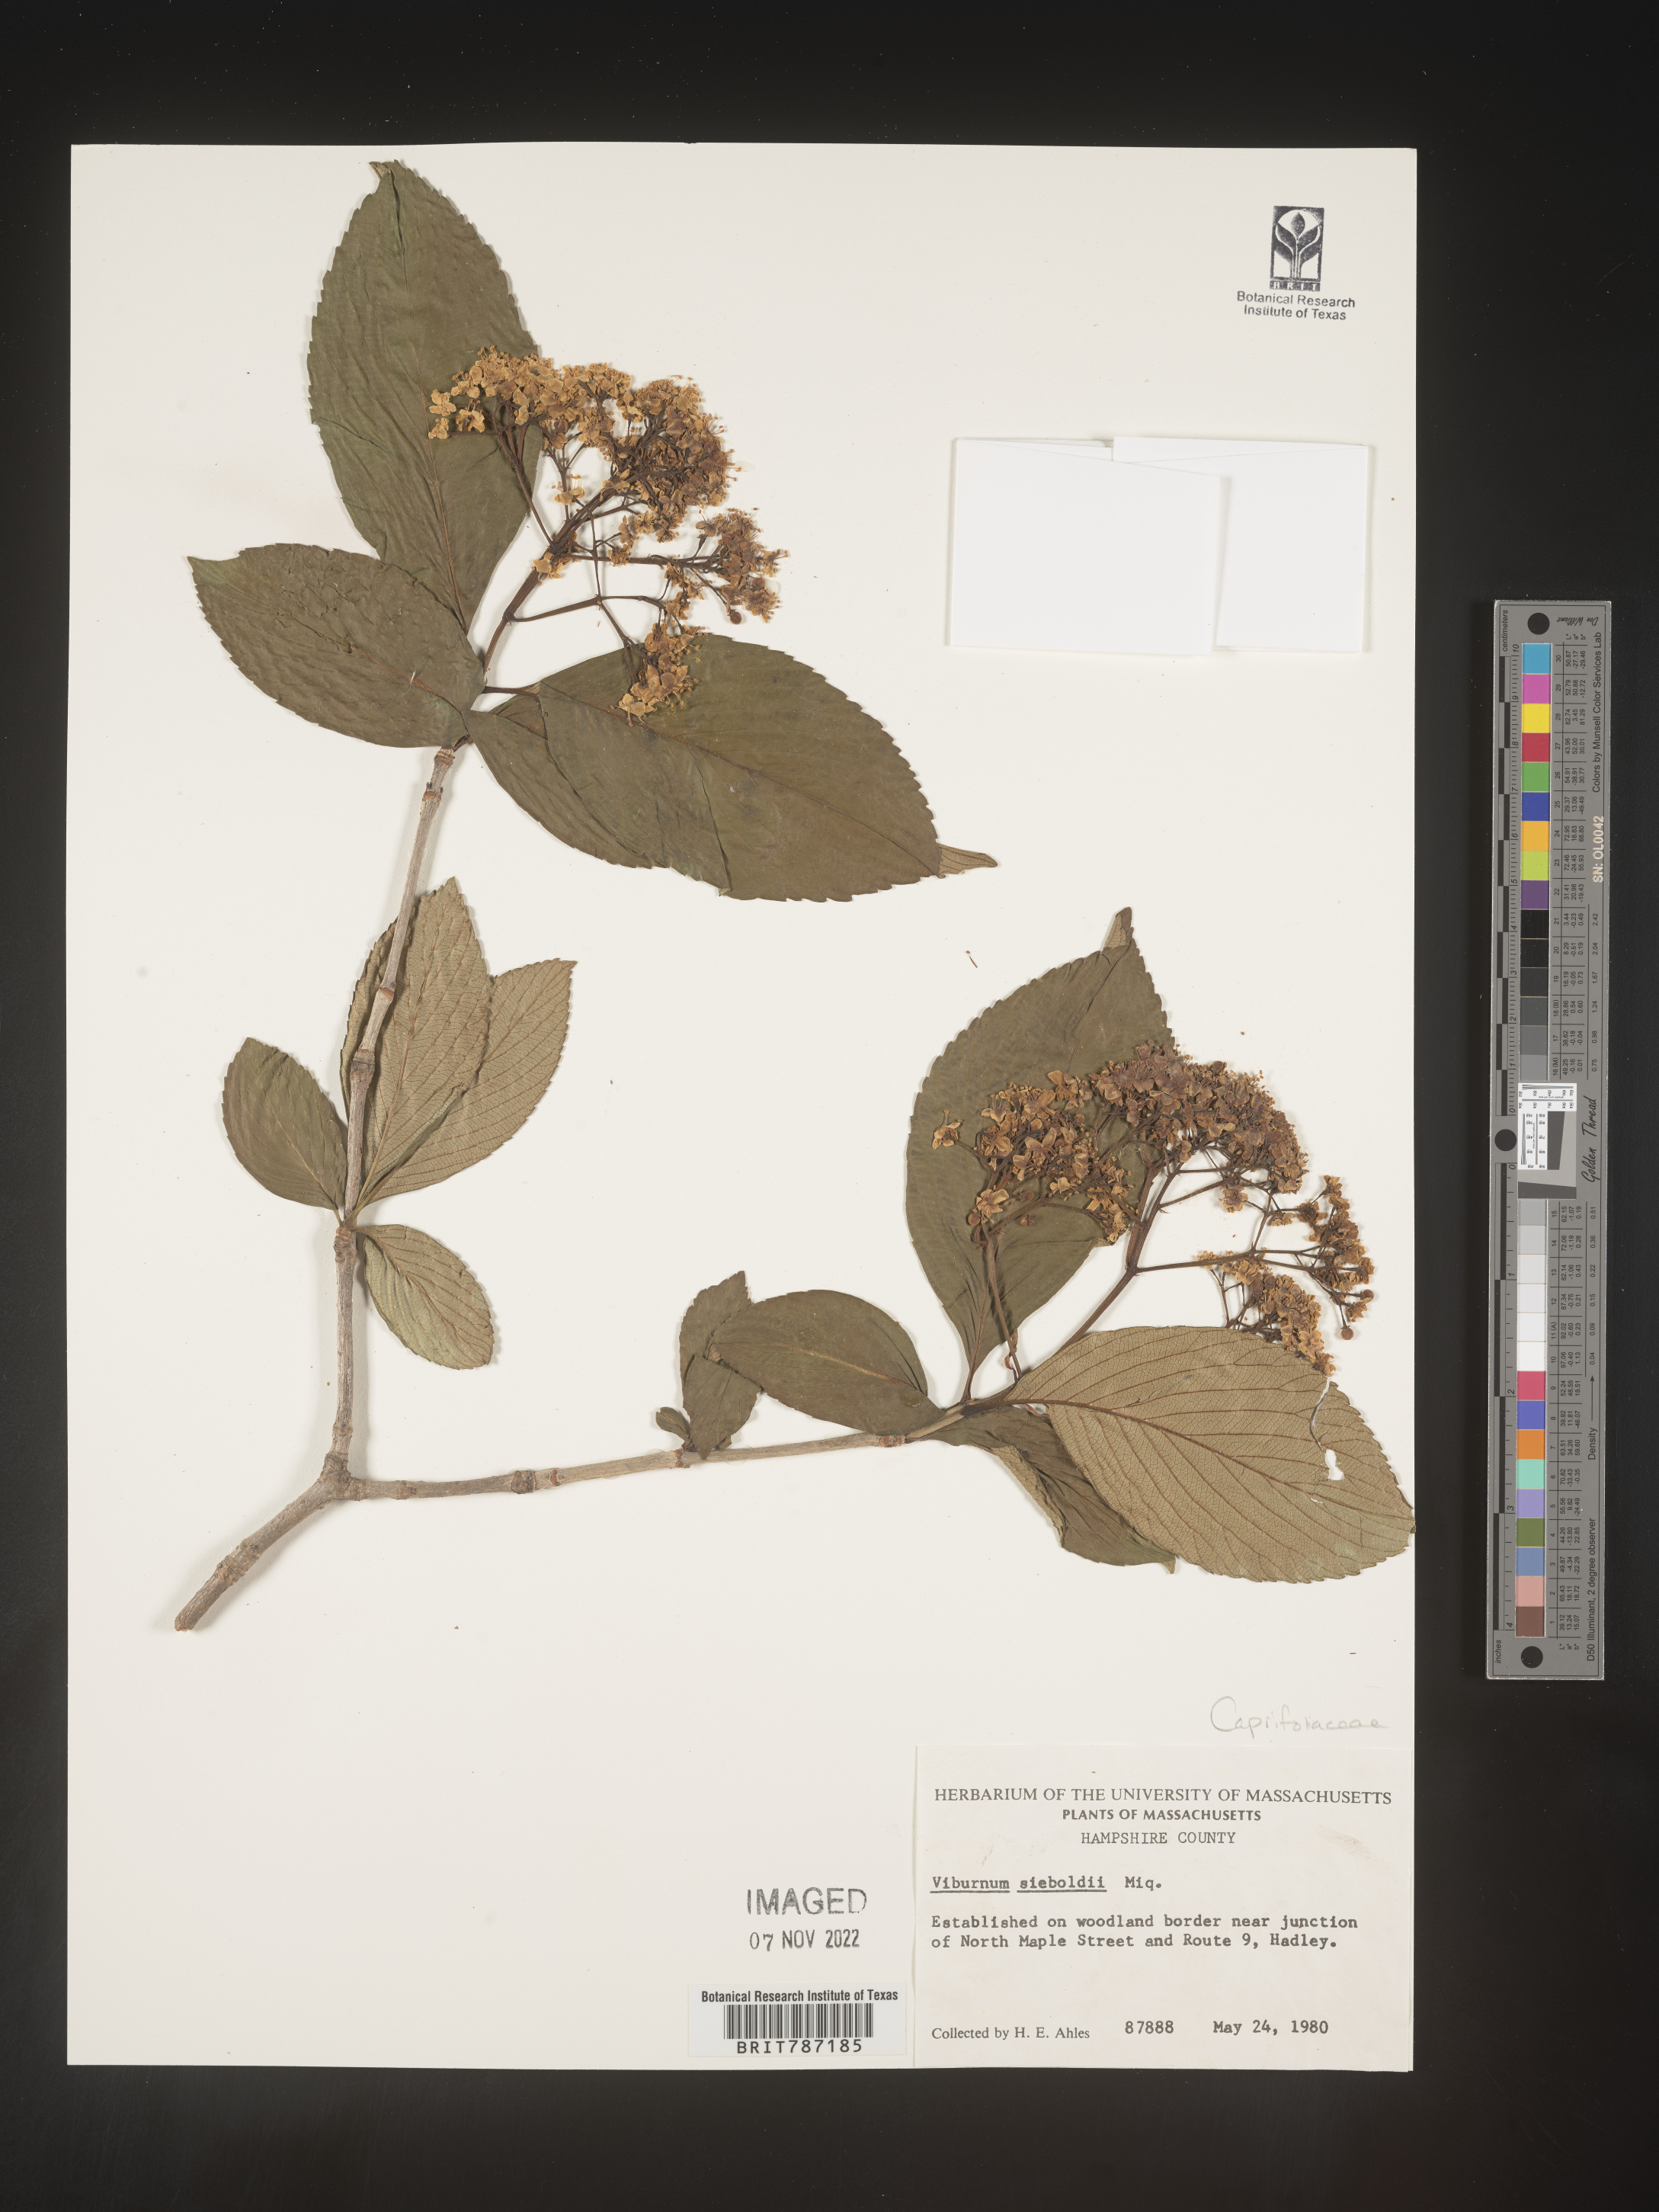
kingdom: Plantae
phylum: Tracheophyta
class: Magnoliopsida
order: Dipsacales
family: Viburnaceae
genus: Viburnum
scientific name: Viburnum
